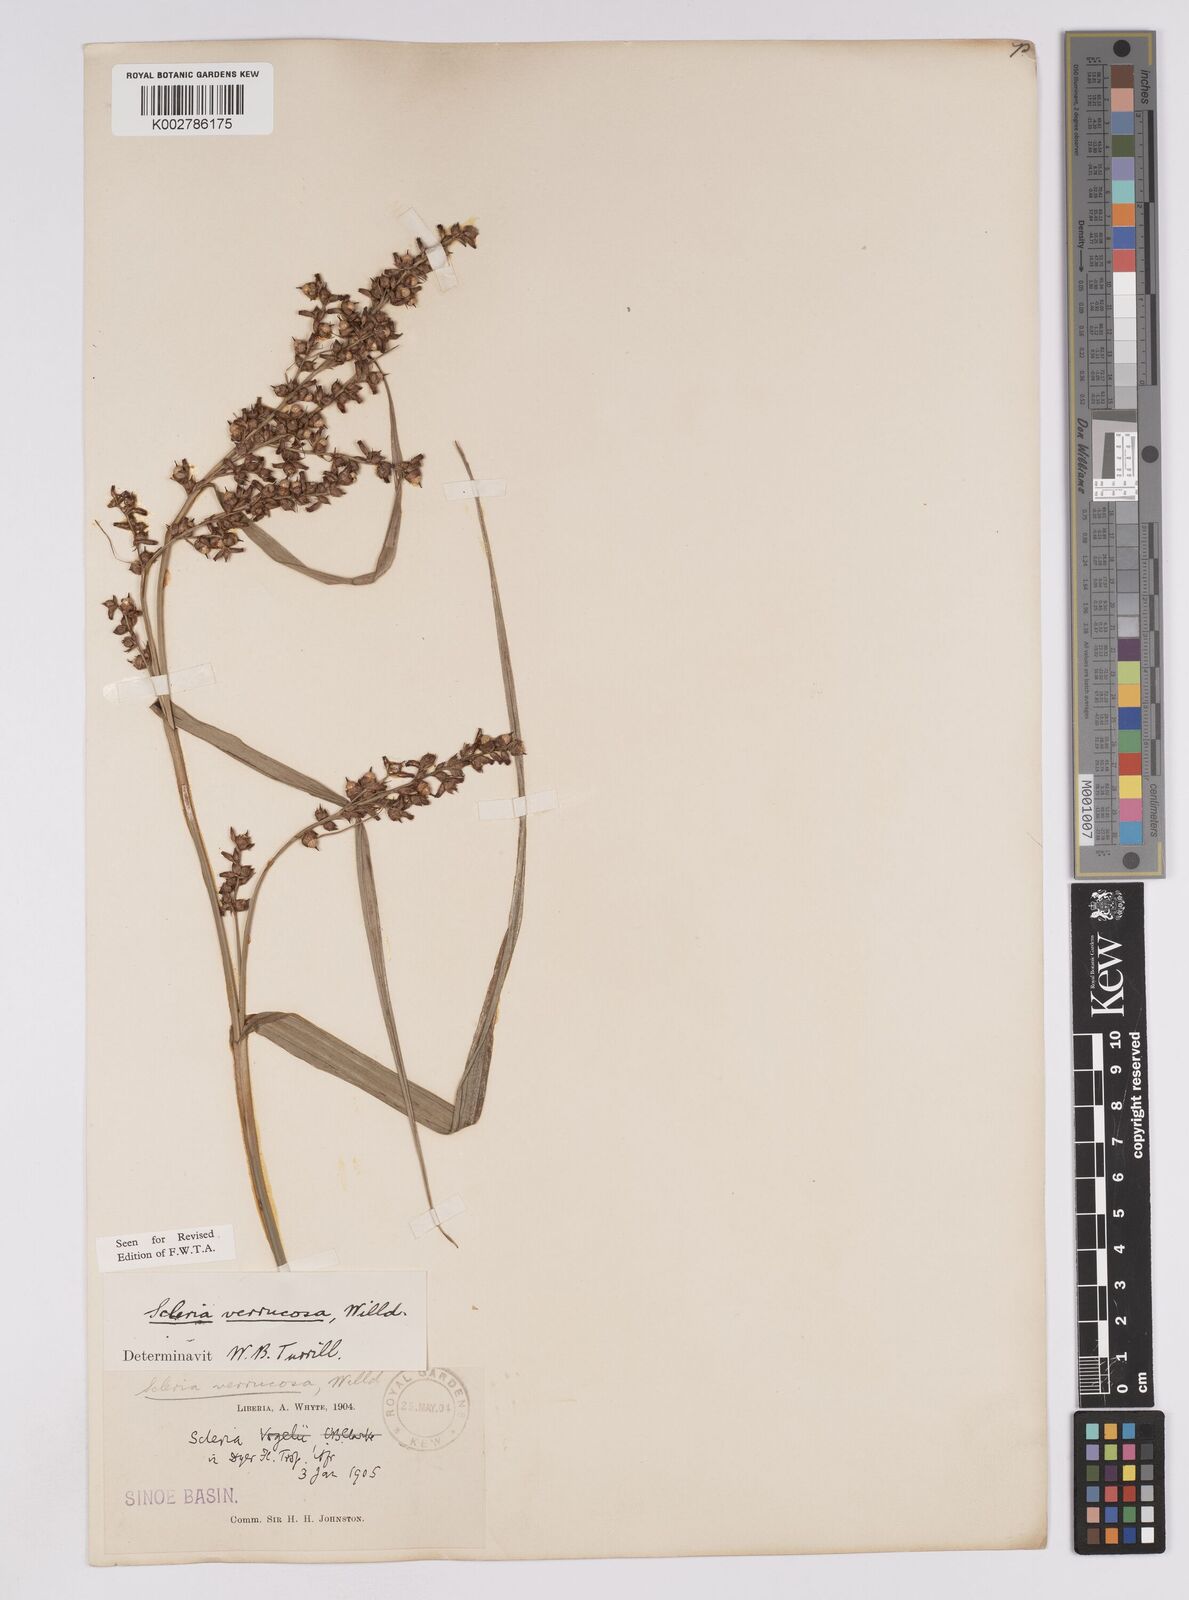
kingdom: Plantae
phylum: Tracheophyta
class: Liliopsida
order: Poales
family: Cyperaceae
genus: Scleria
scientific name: Scleria verrucosa
